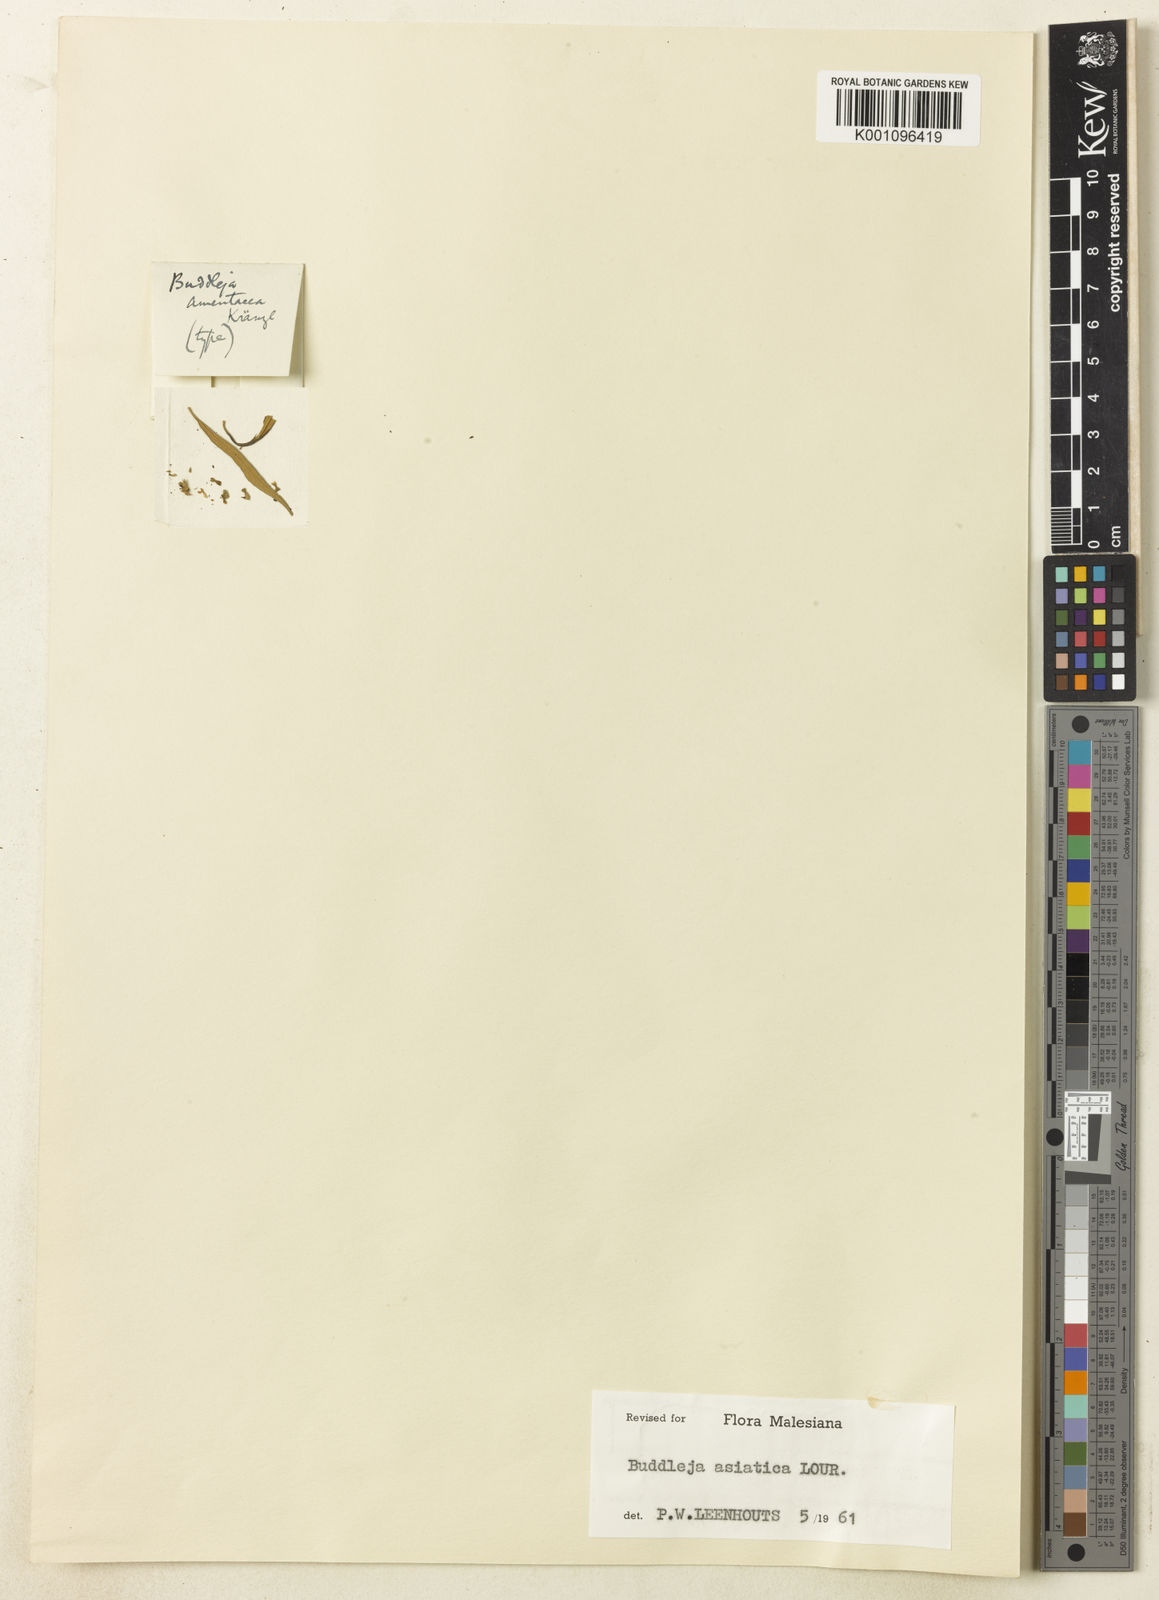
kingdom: Plantae
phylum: Tracheophyta
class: Magnoliopsida
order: Lamiales
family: Scrophulariaceae
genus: Buddleja
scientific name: Buddleja asiatica
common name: Dog tail
